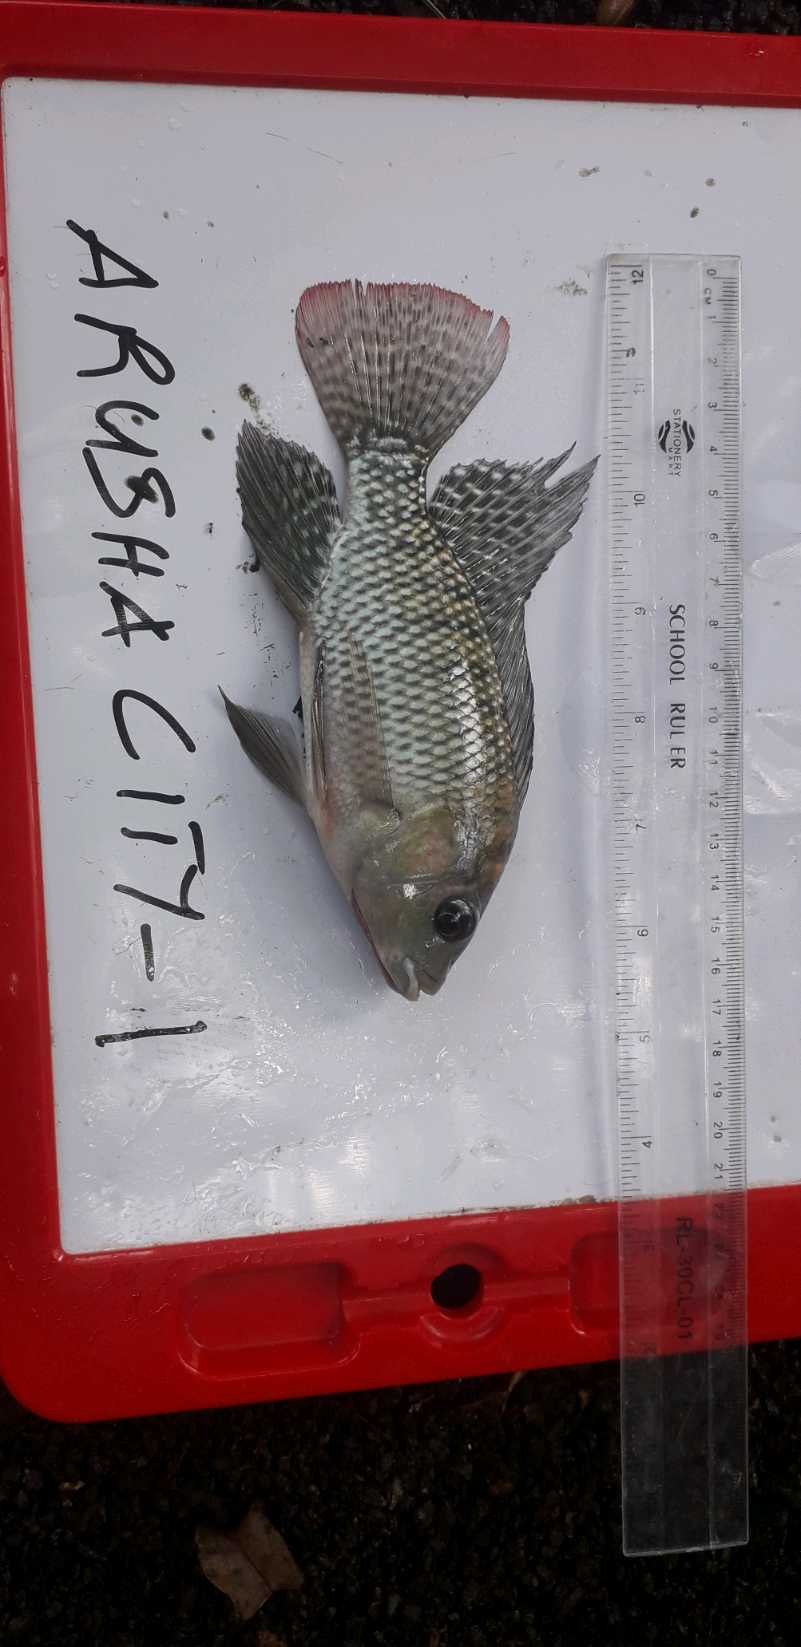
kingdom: Animalia
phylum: Chordata
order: Perciformes
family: Cichlidae
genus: Oreochromis
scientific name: Oreochromis niloticus
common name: Nile tilapia
